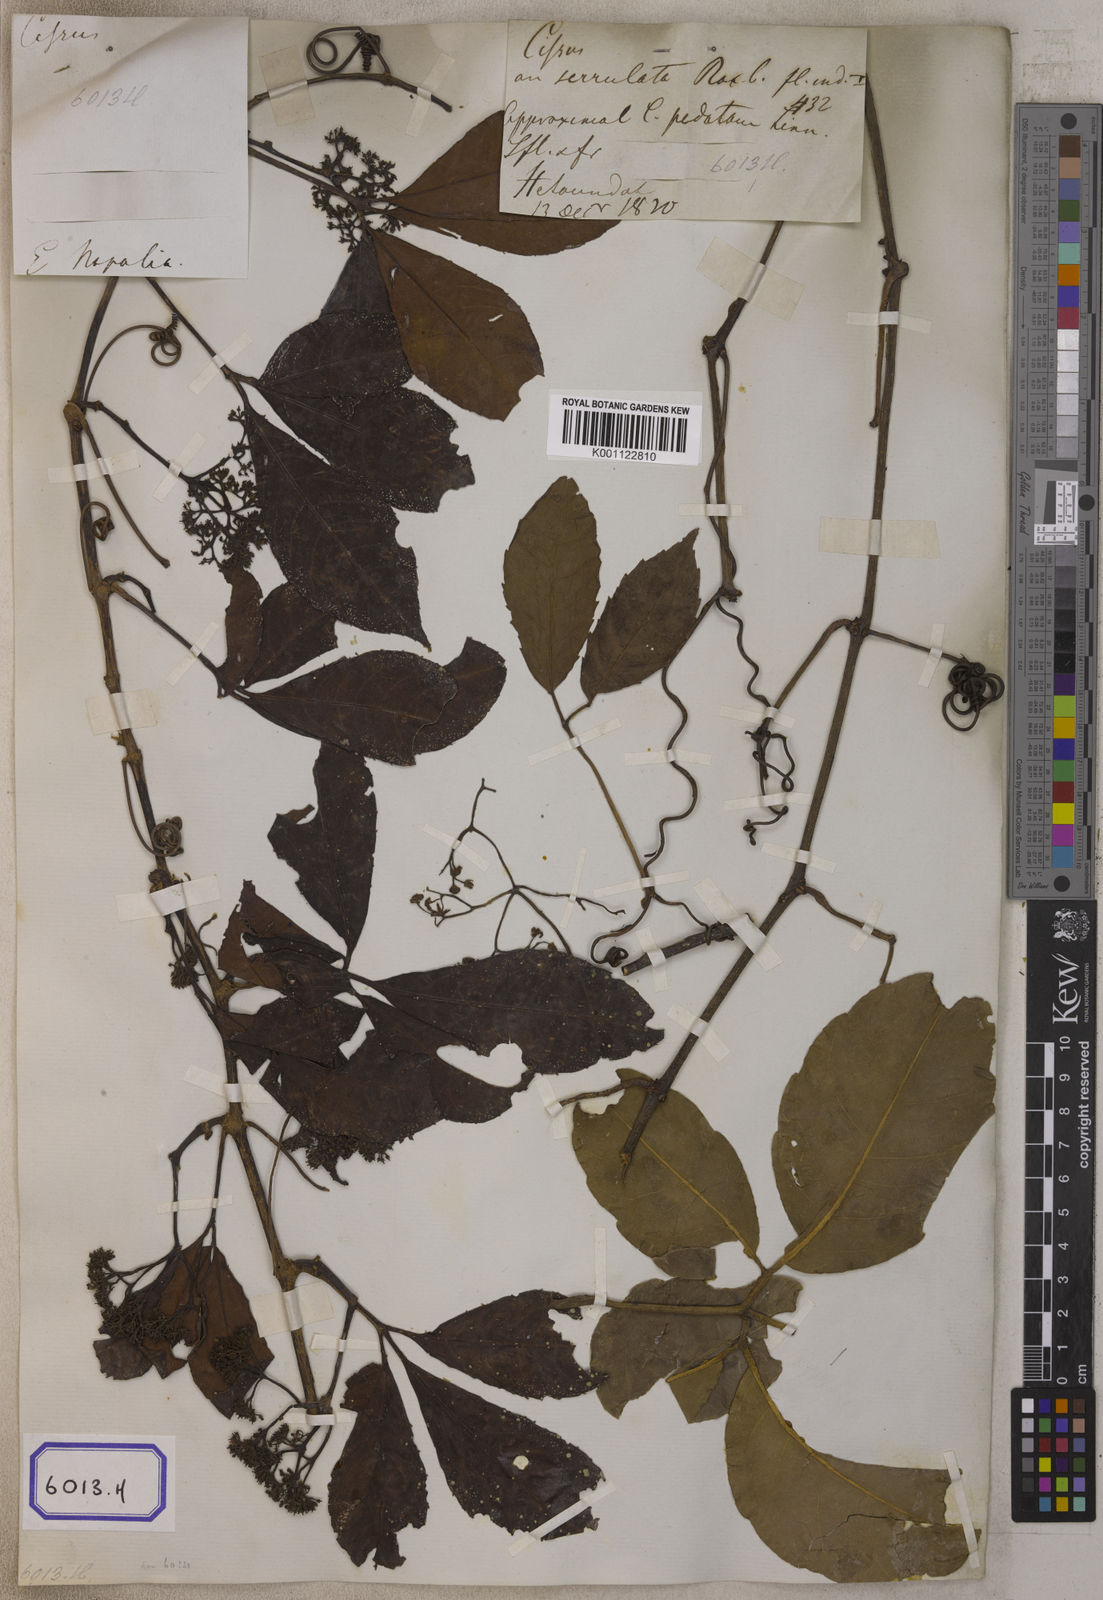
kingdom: Plantae
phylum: Tracheophyta
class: Magnoliopsida
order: Vitales
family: Vitaceae
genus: Vitis
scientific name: Vitis
